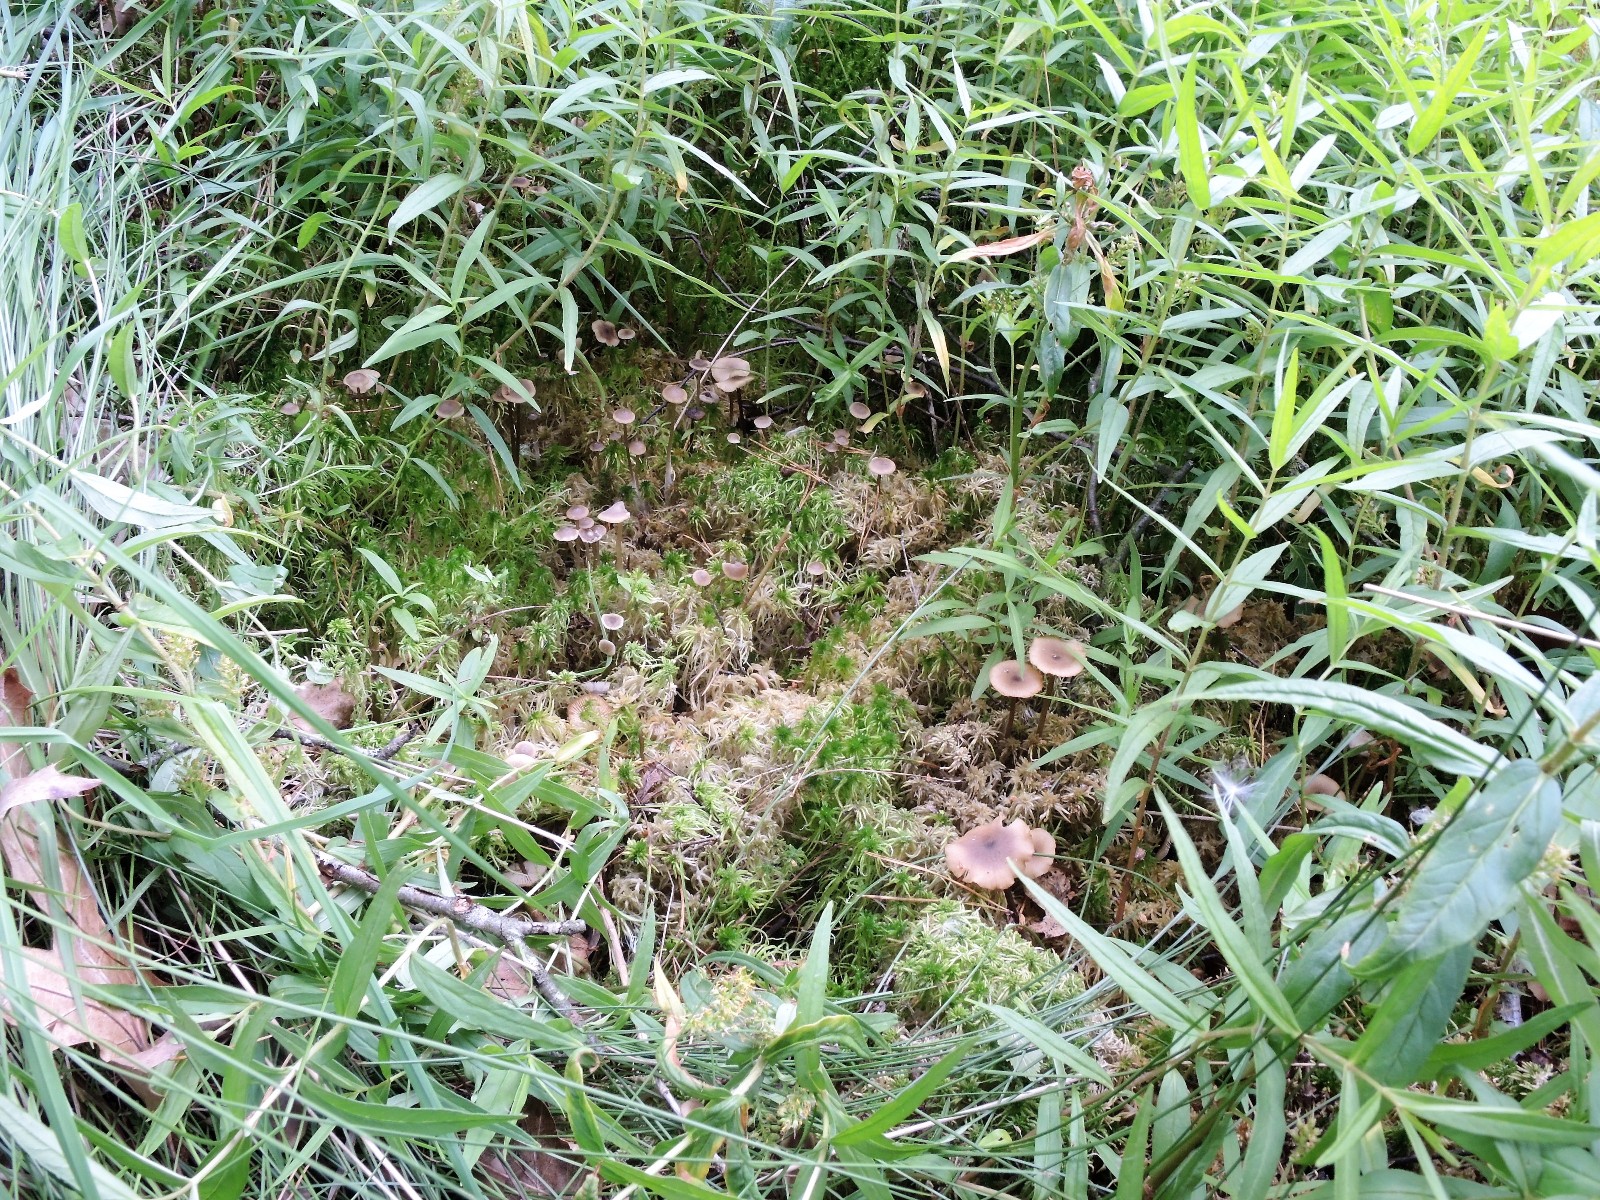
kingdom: Fungi
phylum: Basidiomycota
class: Agaricomycetes
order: Agaricales
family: Lyophyllaceae
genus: Sphagnurus
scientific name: Sphagnurus paluster
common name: tørvemos-gråblad
